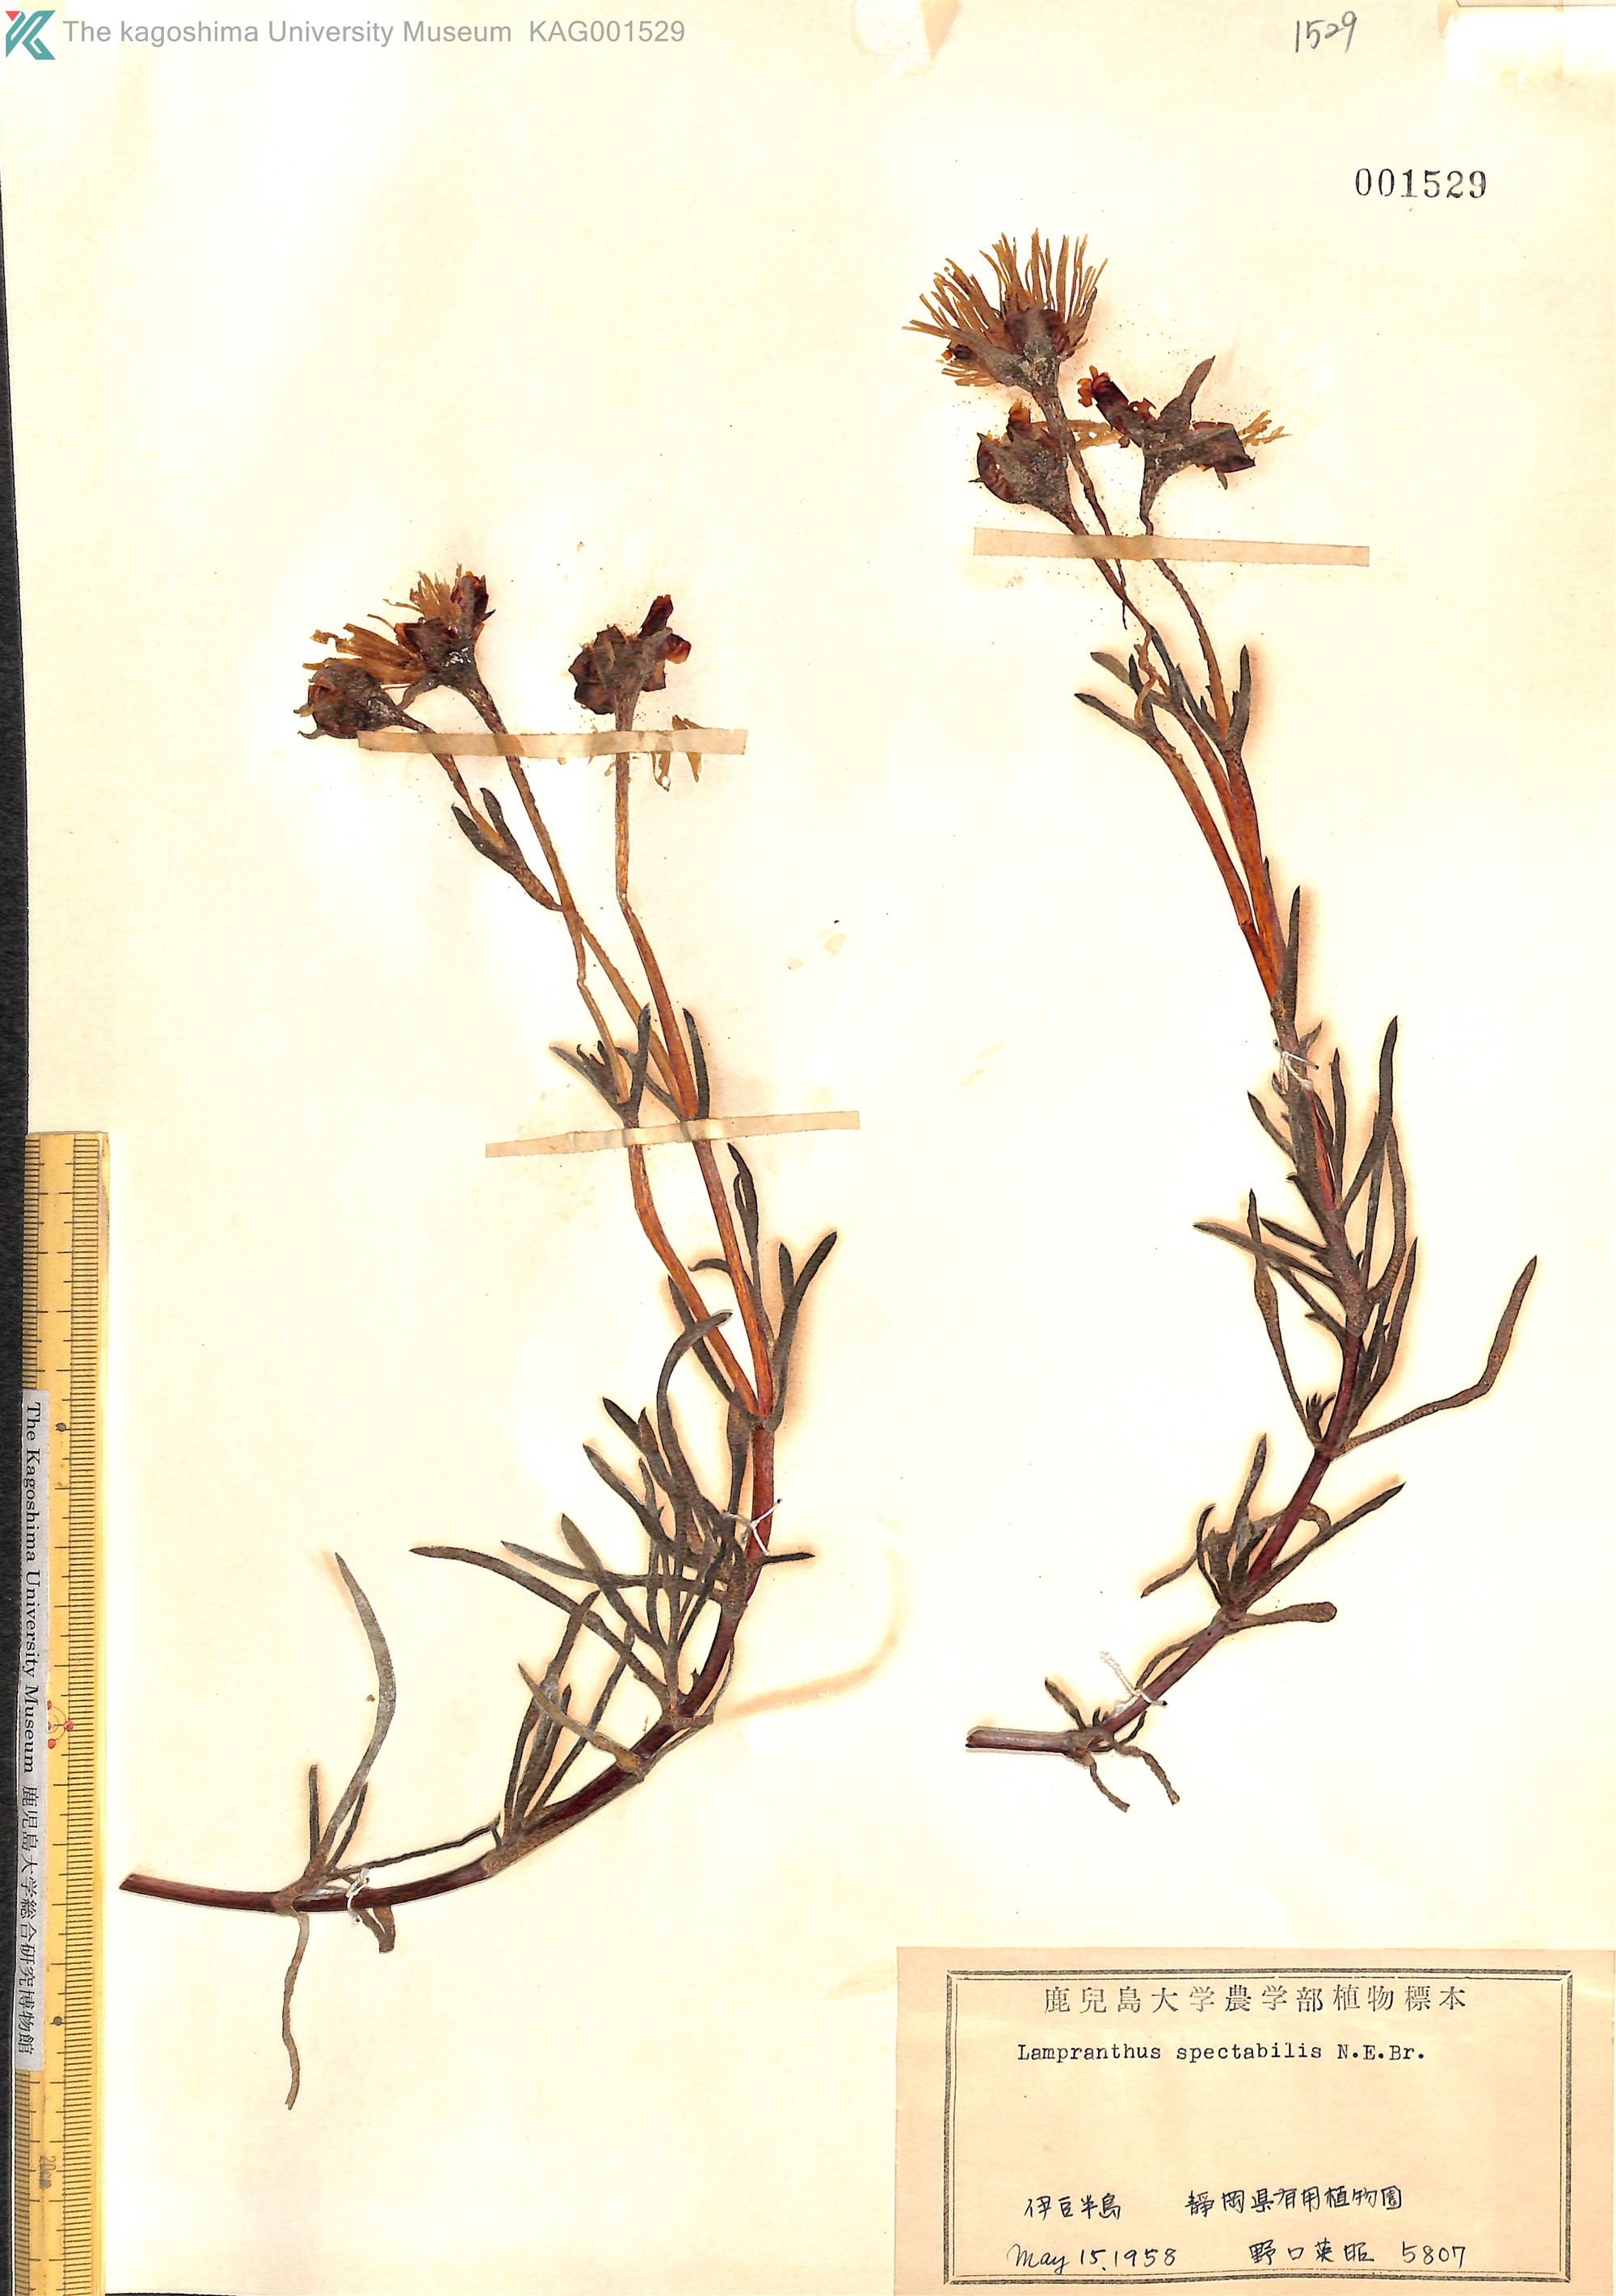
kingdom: Plantae
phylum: Tracheophyta
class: Magnoliopsida
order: Caryophyllales
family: Aizoaceae
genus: Lampranthus
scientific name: Lampranthus spectabilis
